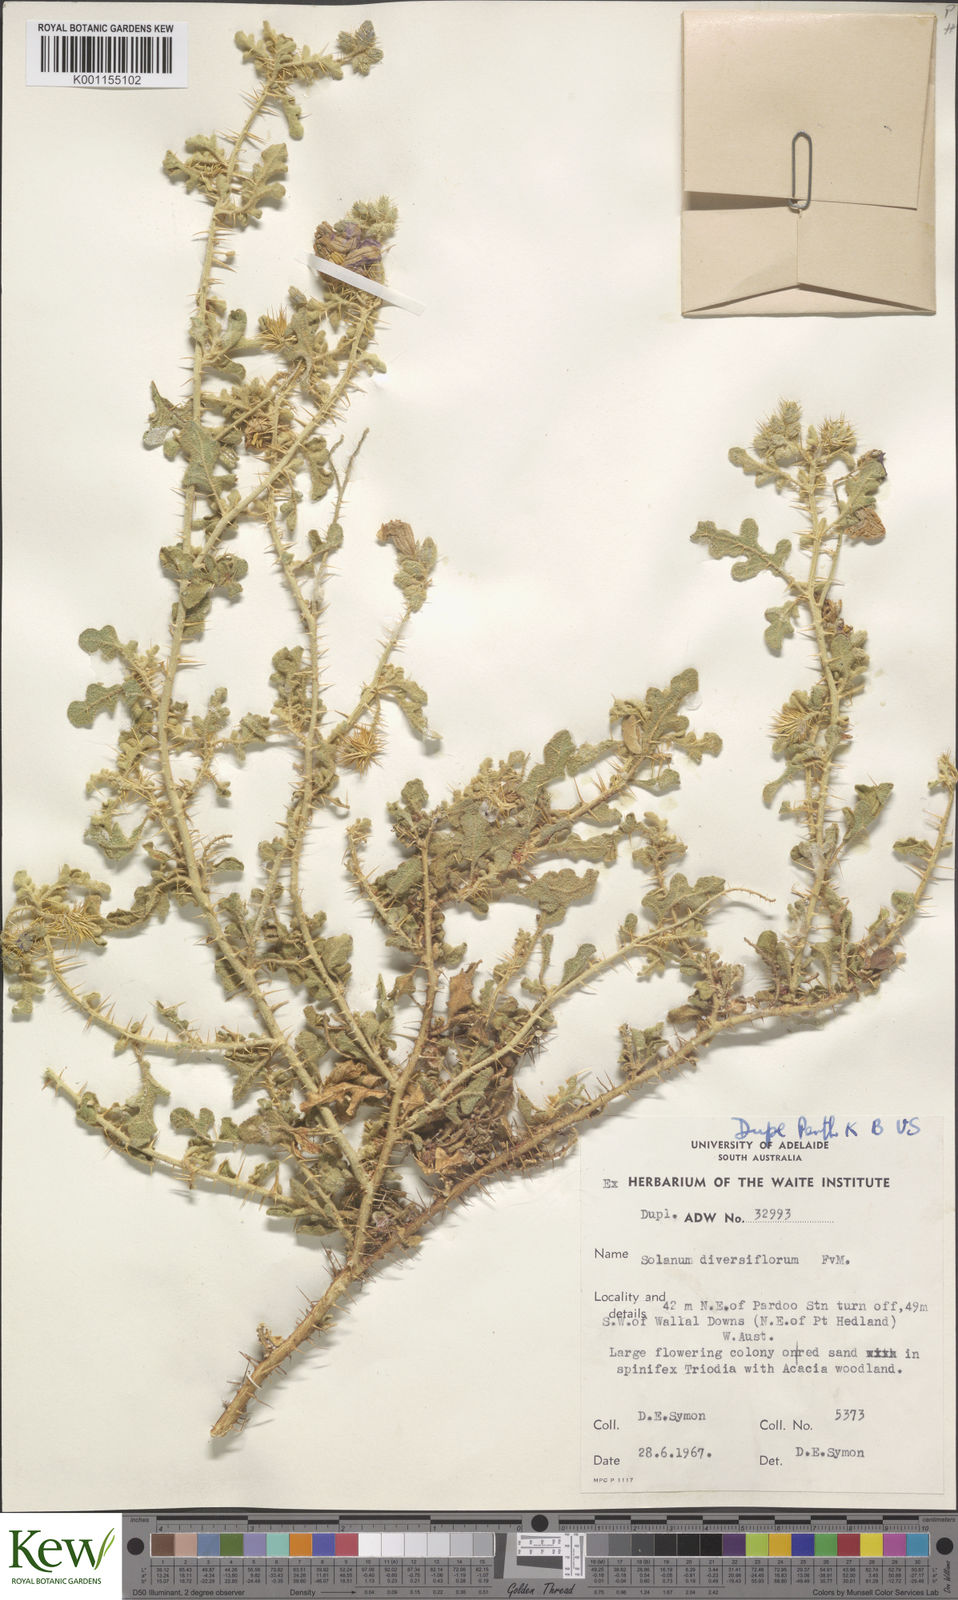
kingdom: Plantae
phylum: Tracheophyta
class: Magnoliopsida
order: Solanales
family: Solanaceae
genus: Solanum
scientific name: Solanum diversiflorum
